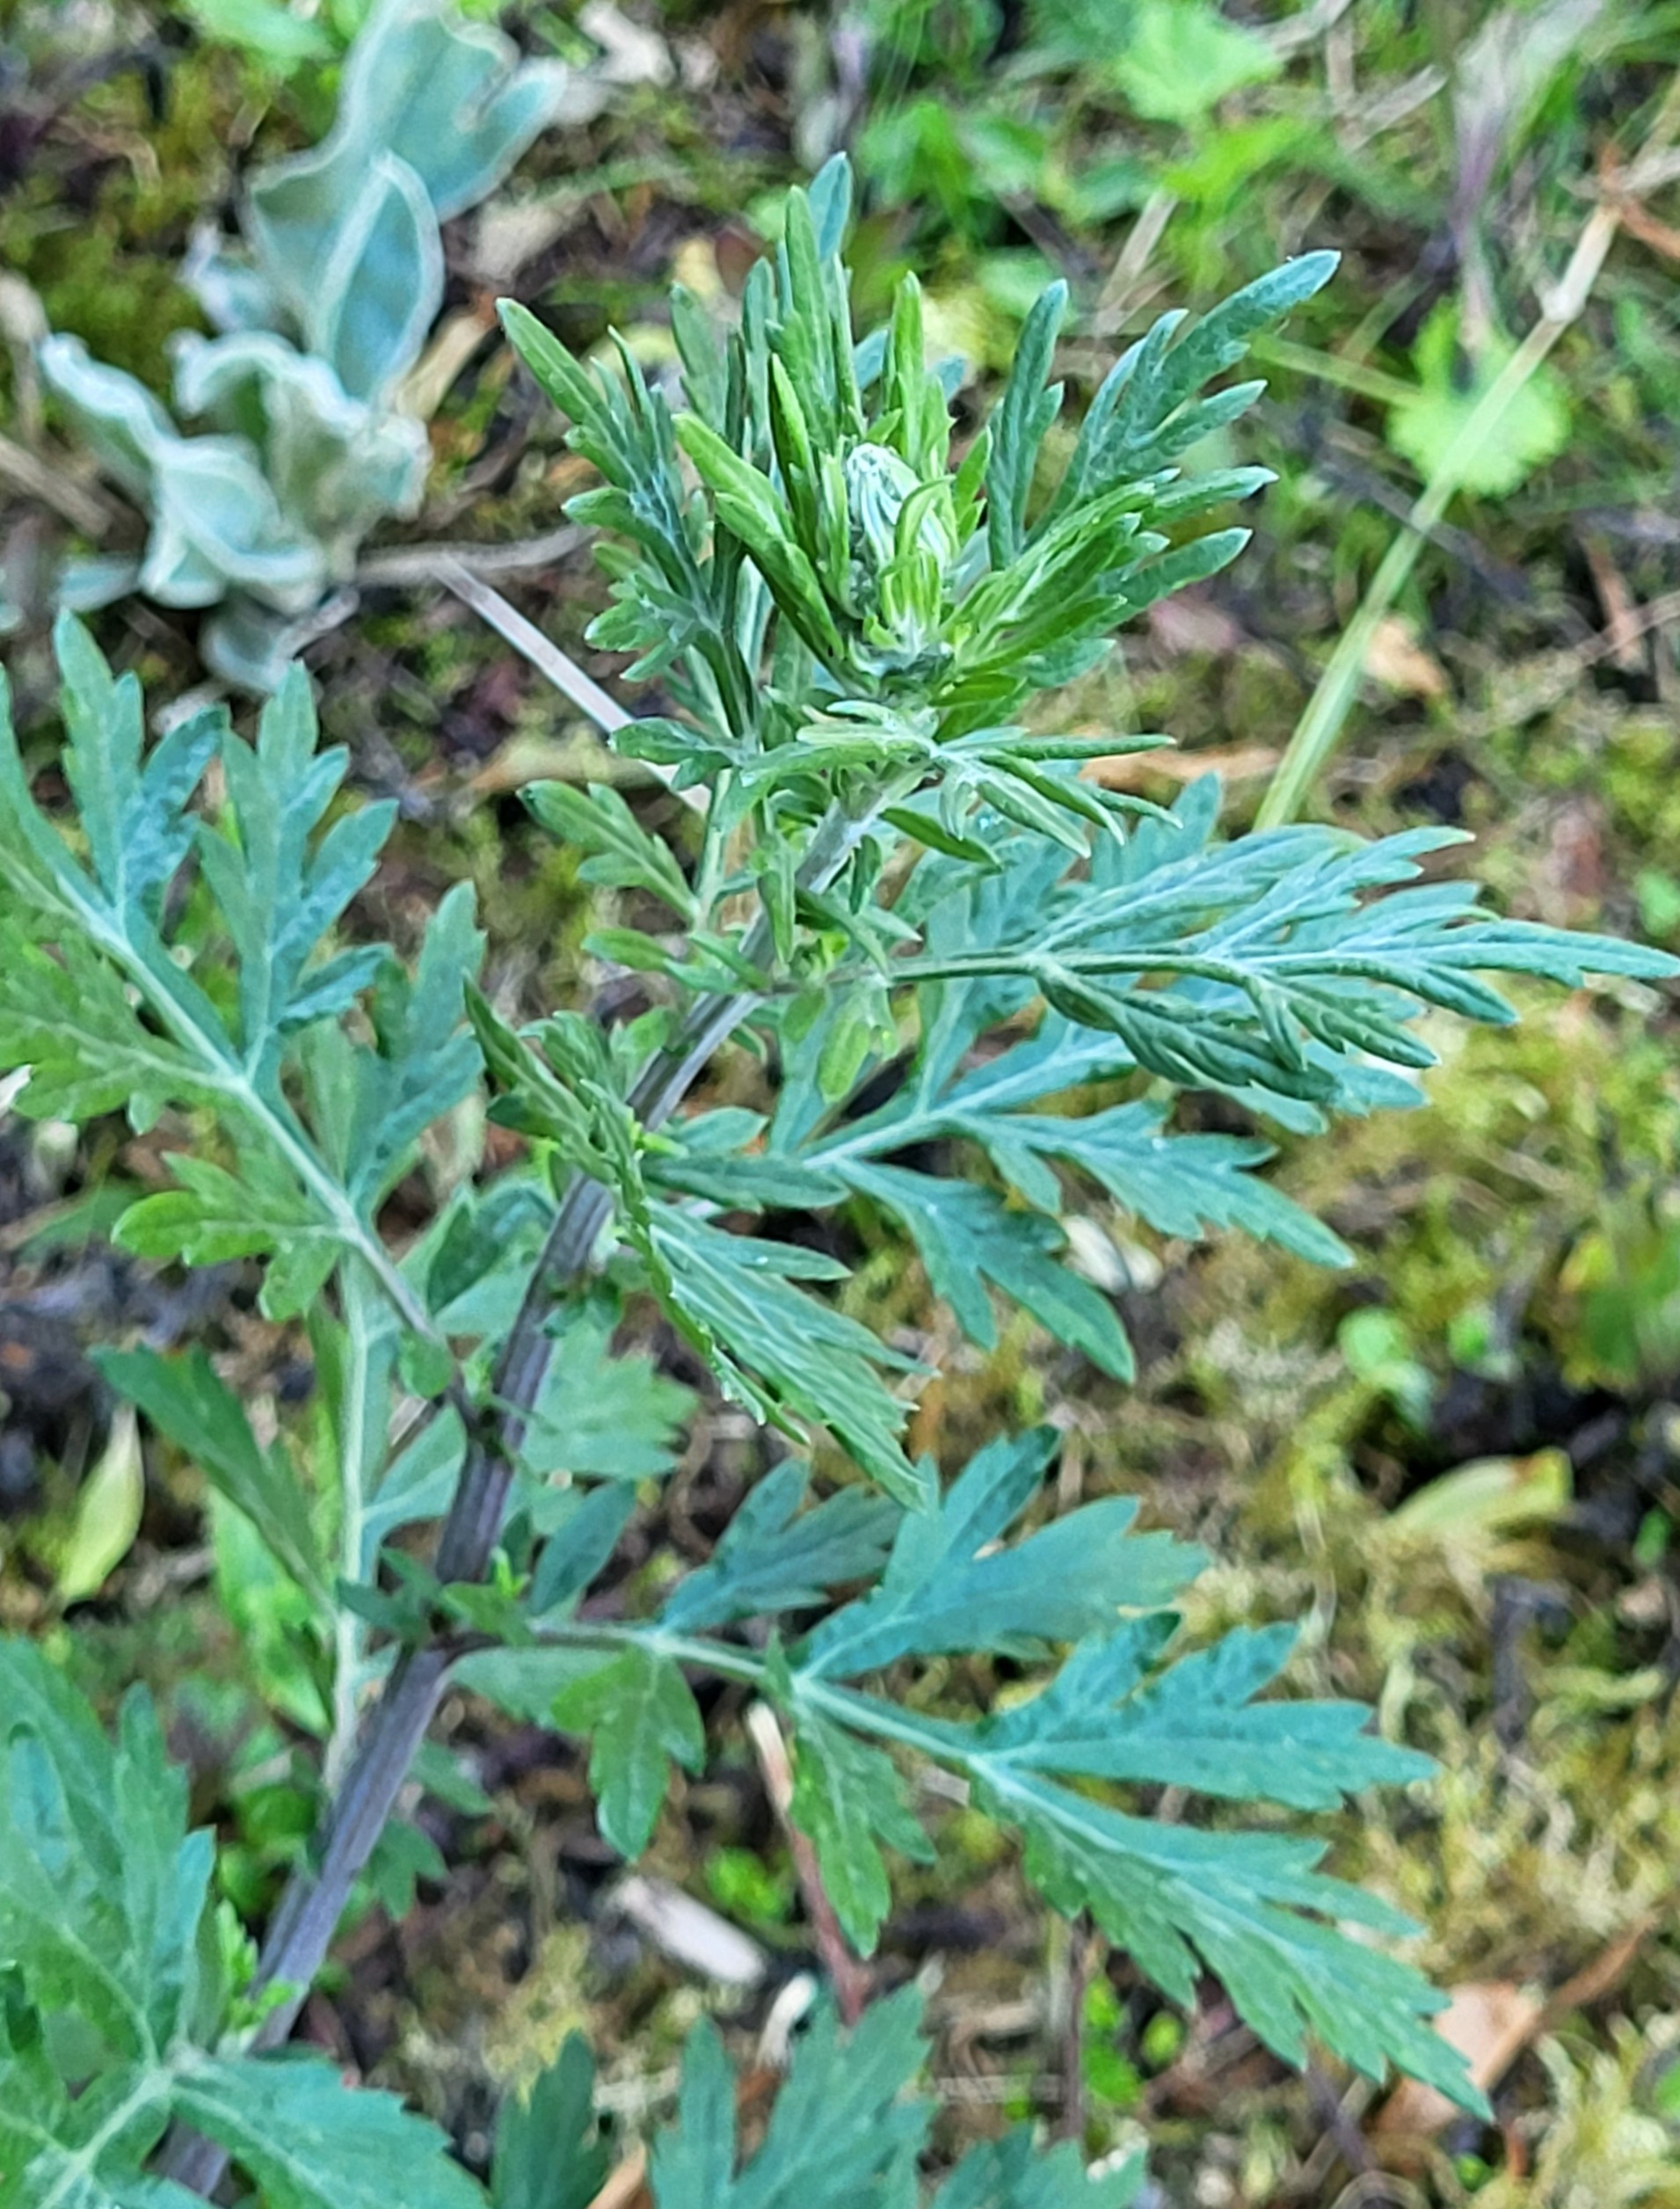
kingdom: Plantae
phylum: Tracheophyta
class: Magnoliopsida
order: Asterales
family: Asteraceae
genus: Artemisia
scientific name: Artemisia vulgaris
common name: Grå-bynke
